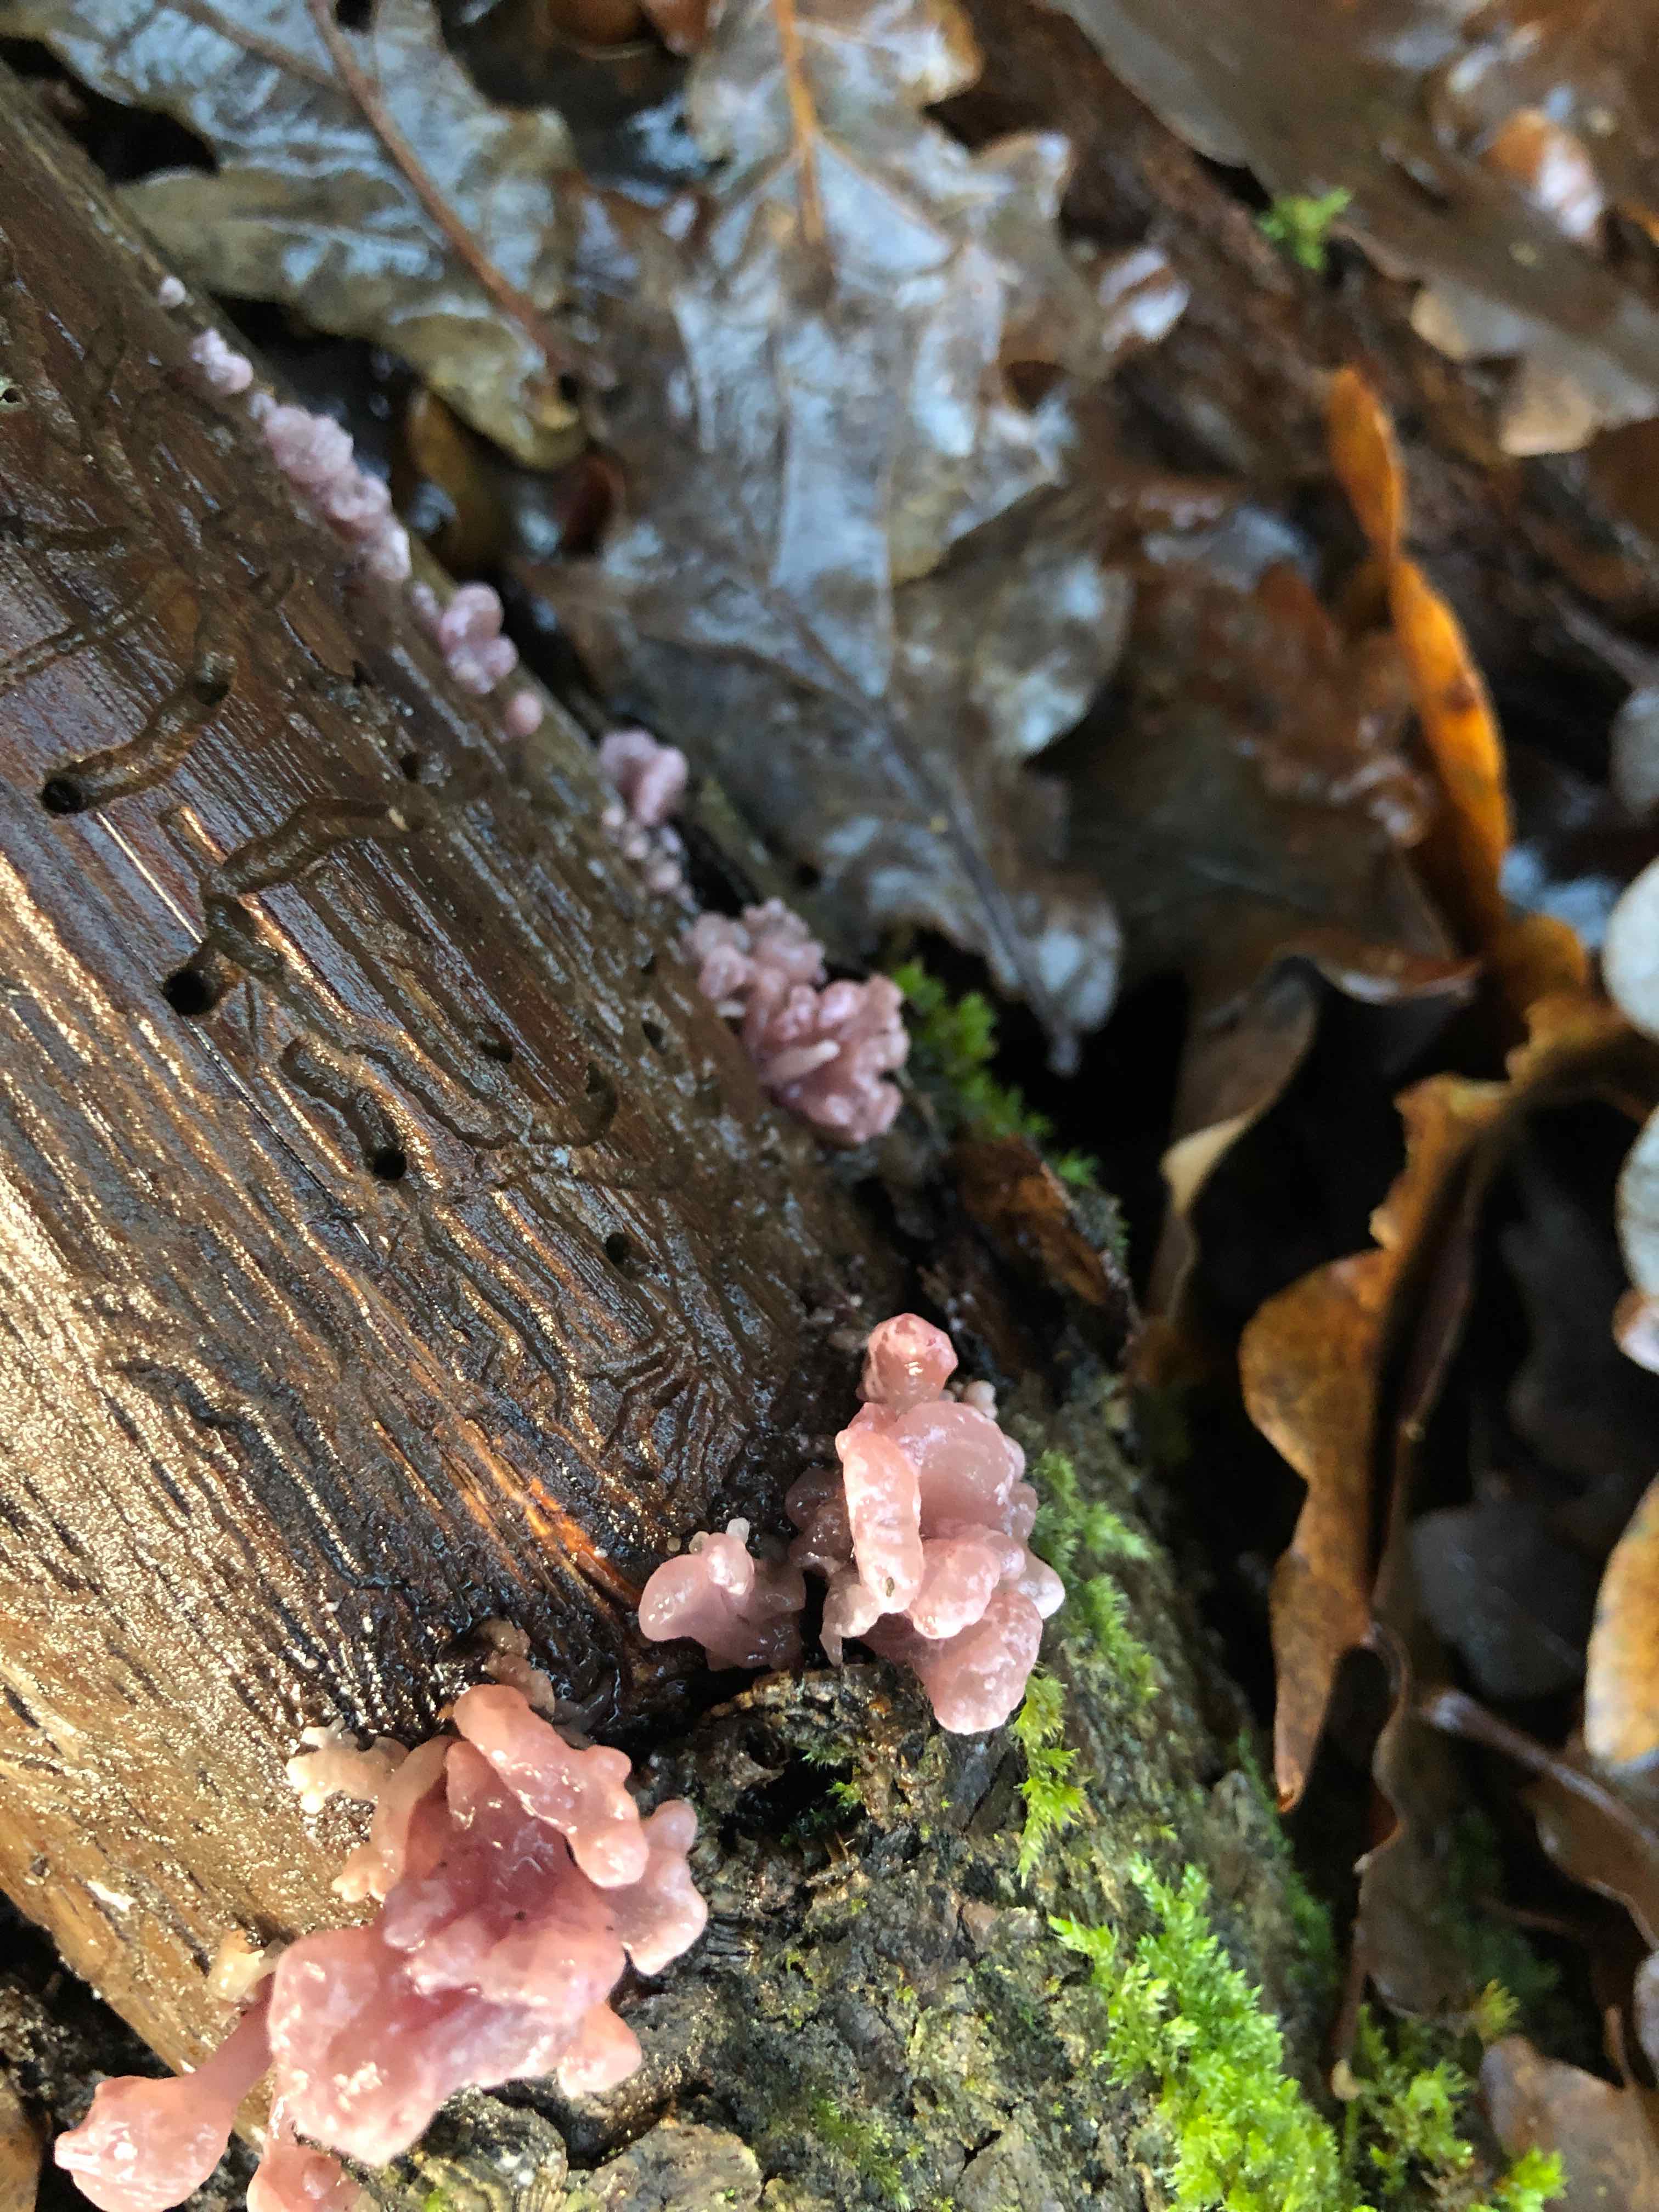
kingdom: Fungi
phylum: Ascomycota
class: Leotiomycetes
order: Helotiales
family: Gelatinodiscaceae
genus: Ascocoryne
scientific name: Ascocoryne sarcoides
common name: rødlilla sejskive
